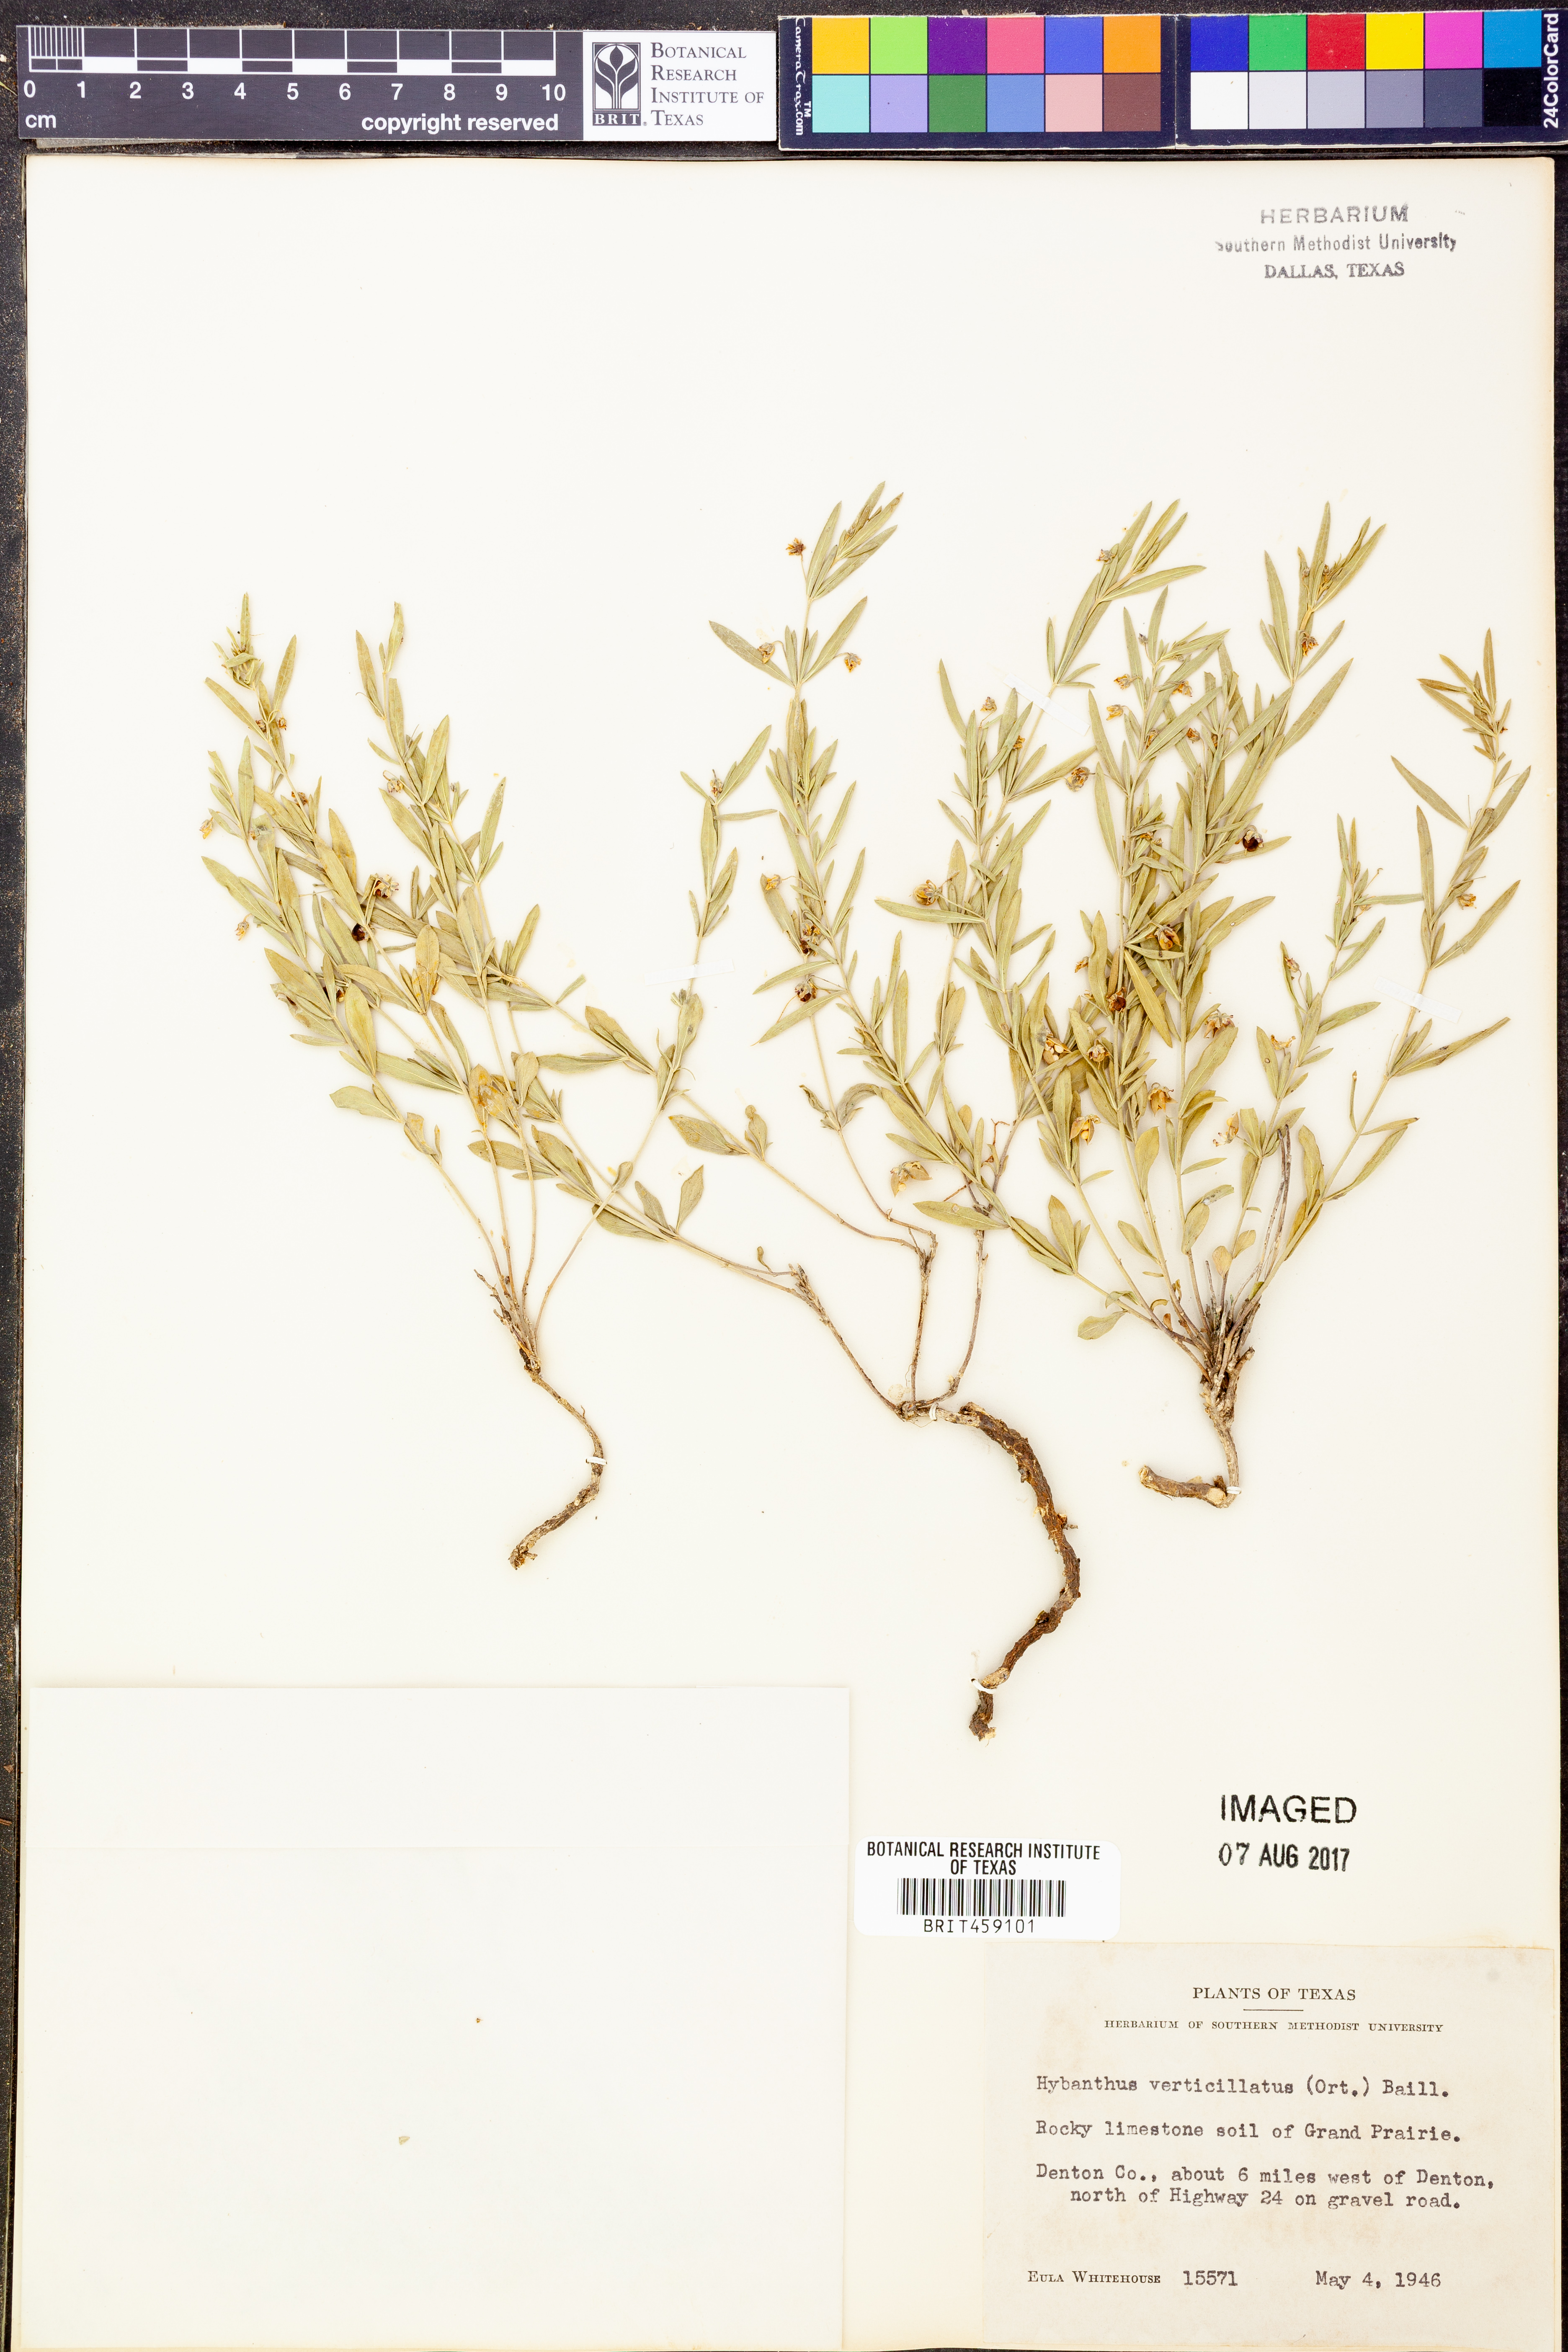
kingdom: Plantae
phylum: Tracheophyta
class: Magnoliopsida
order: Malpighiales
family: Violaceae
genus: Pombalia
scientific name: Pombalia verticillata
